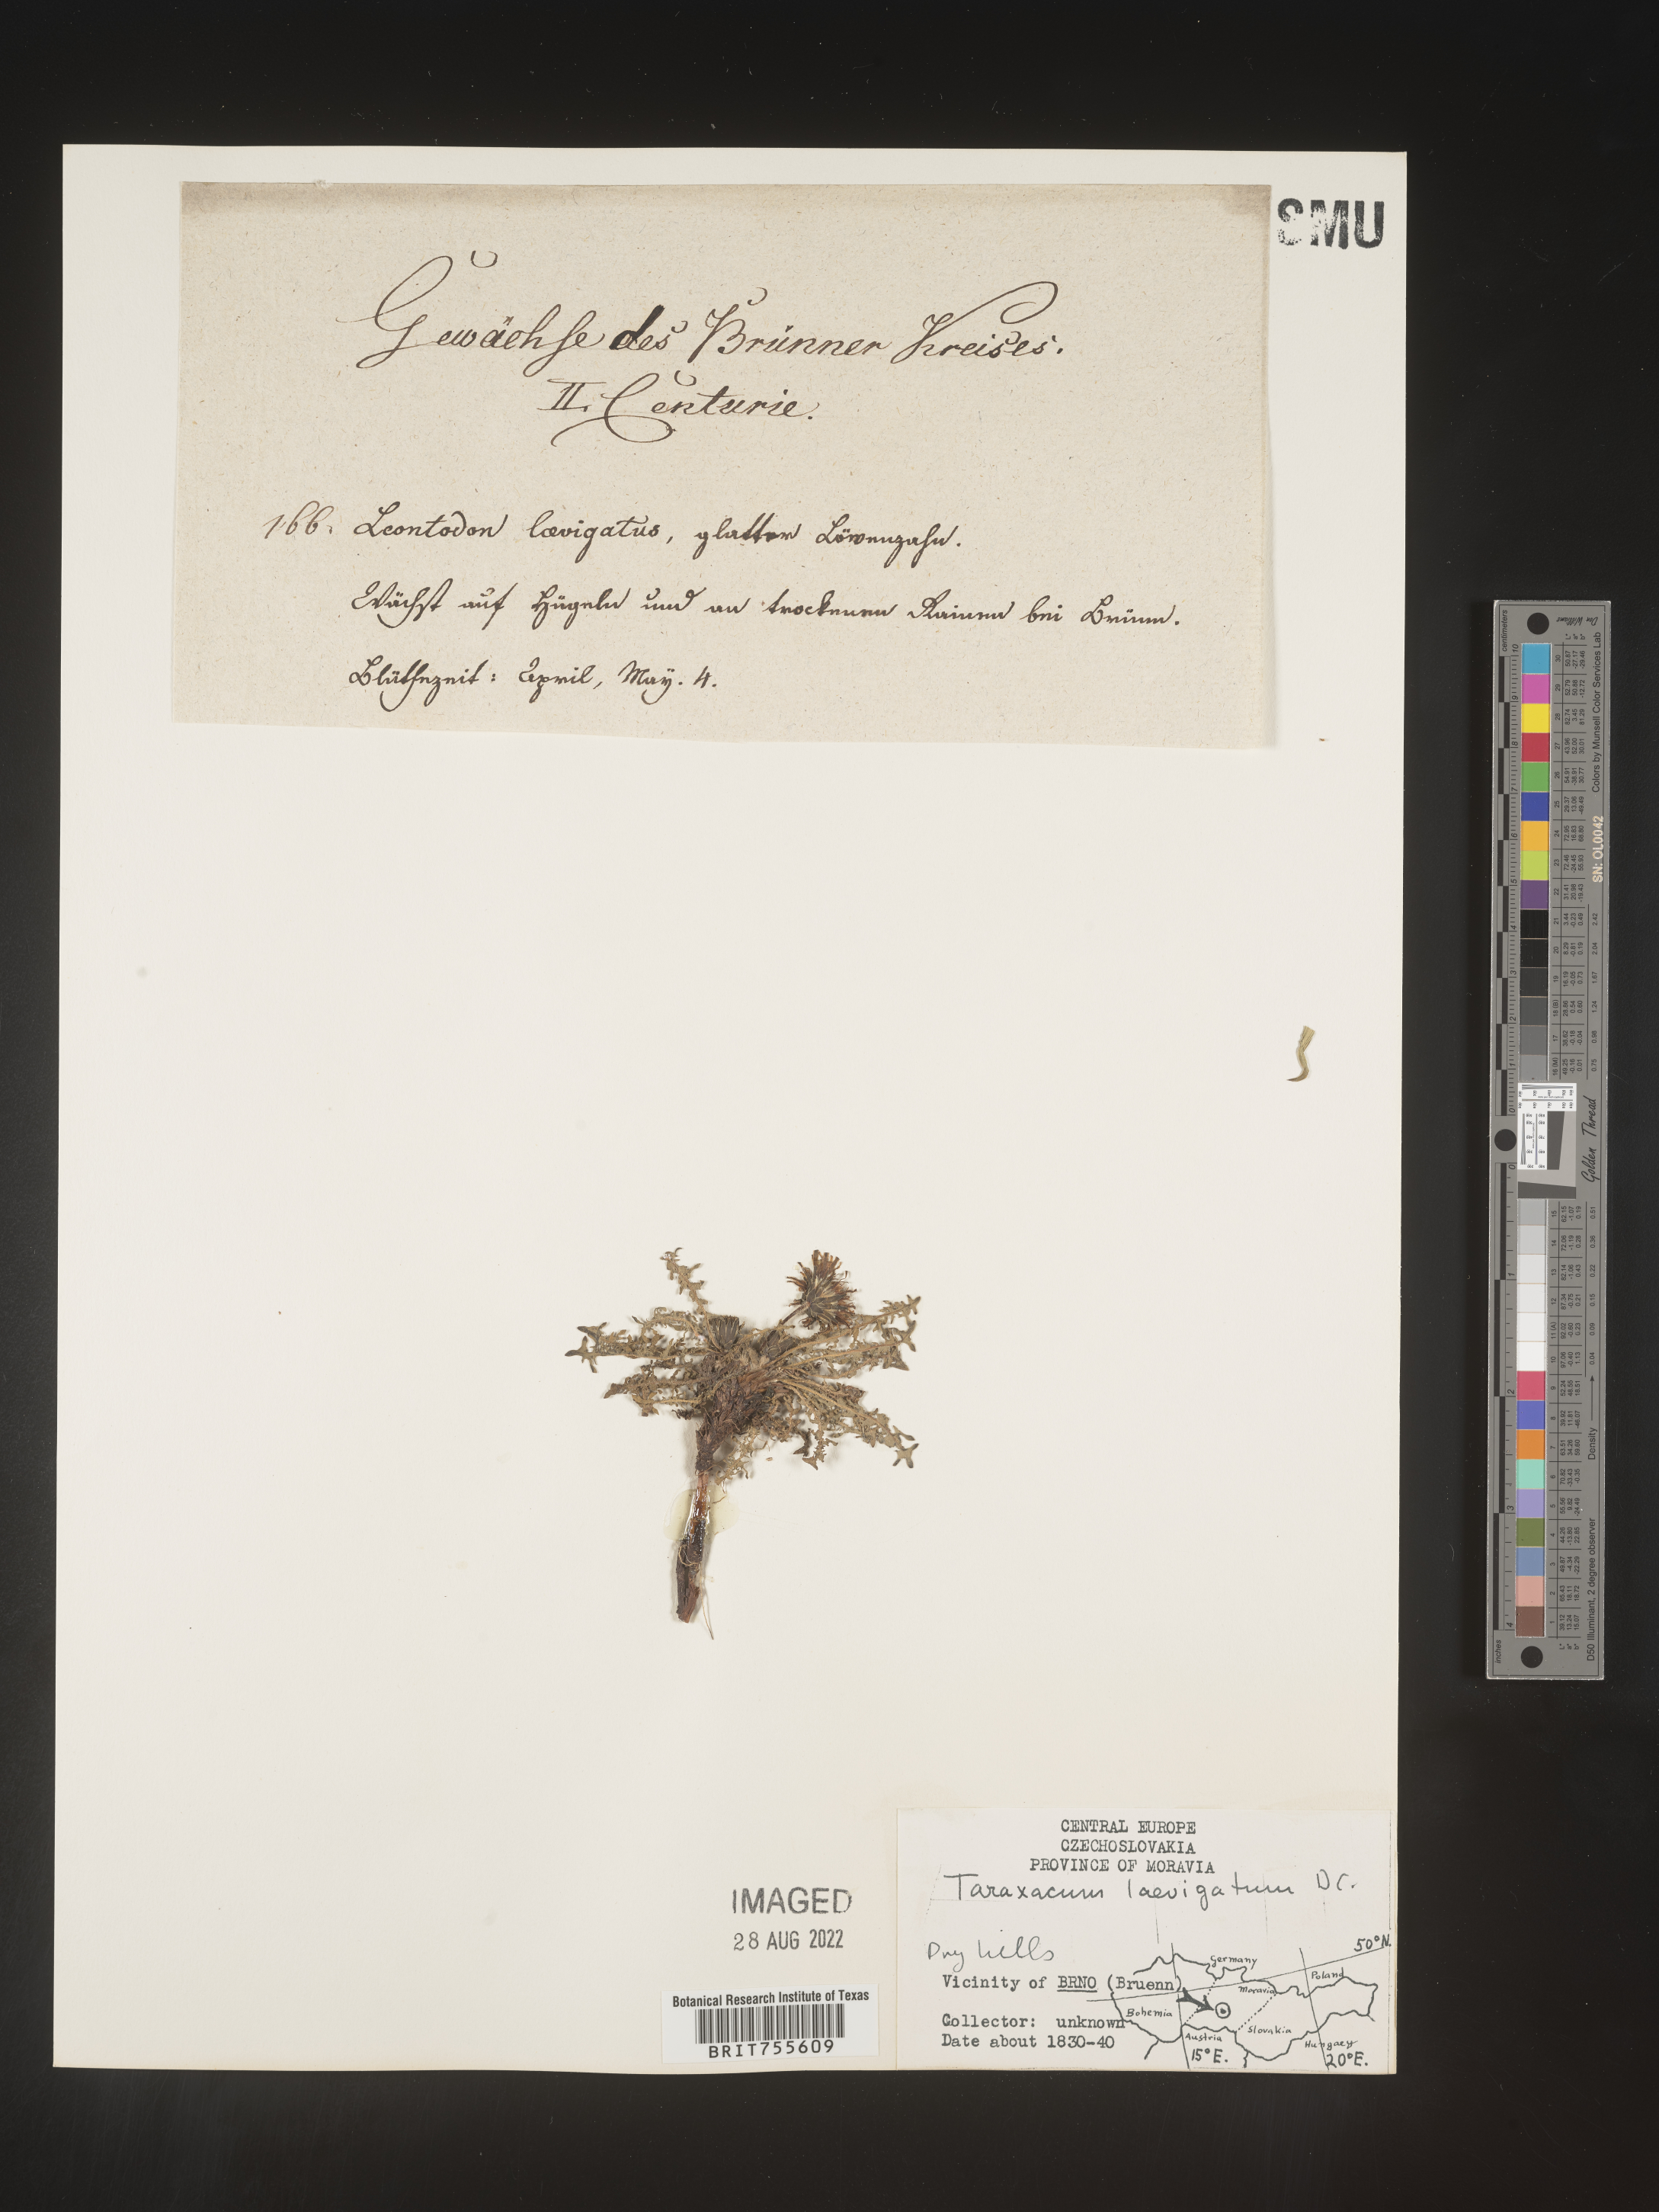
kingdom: Plantae
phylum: Tracheophyta
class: Magnoliopsida
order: Asterales
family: Asteraceae
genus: Taraxacum
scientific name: Taraxacum
